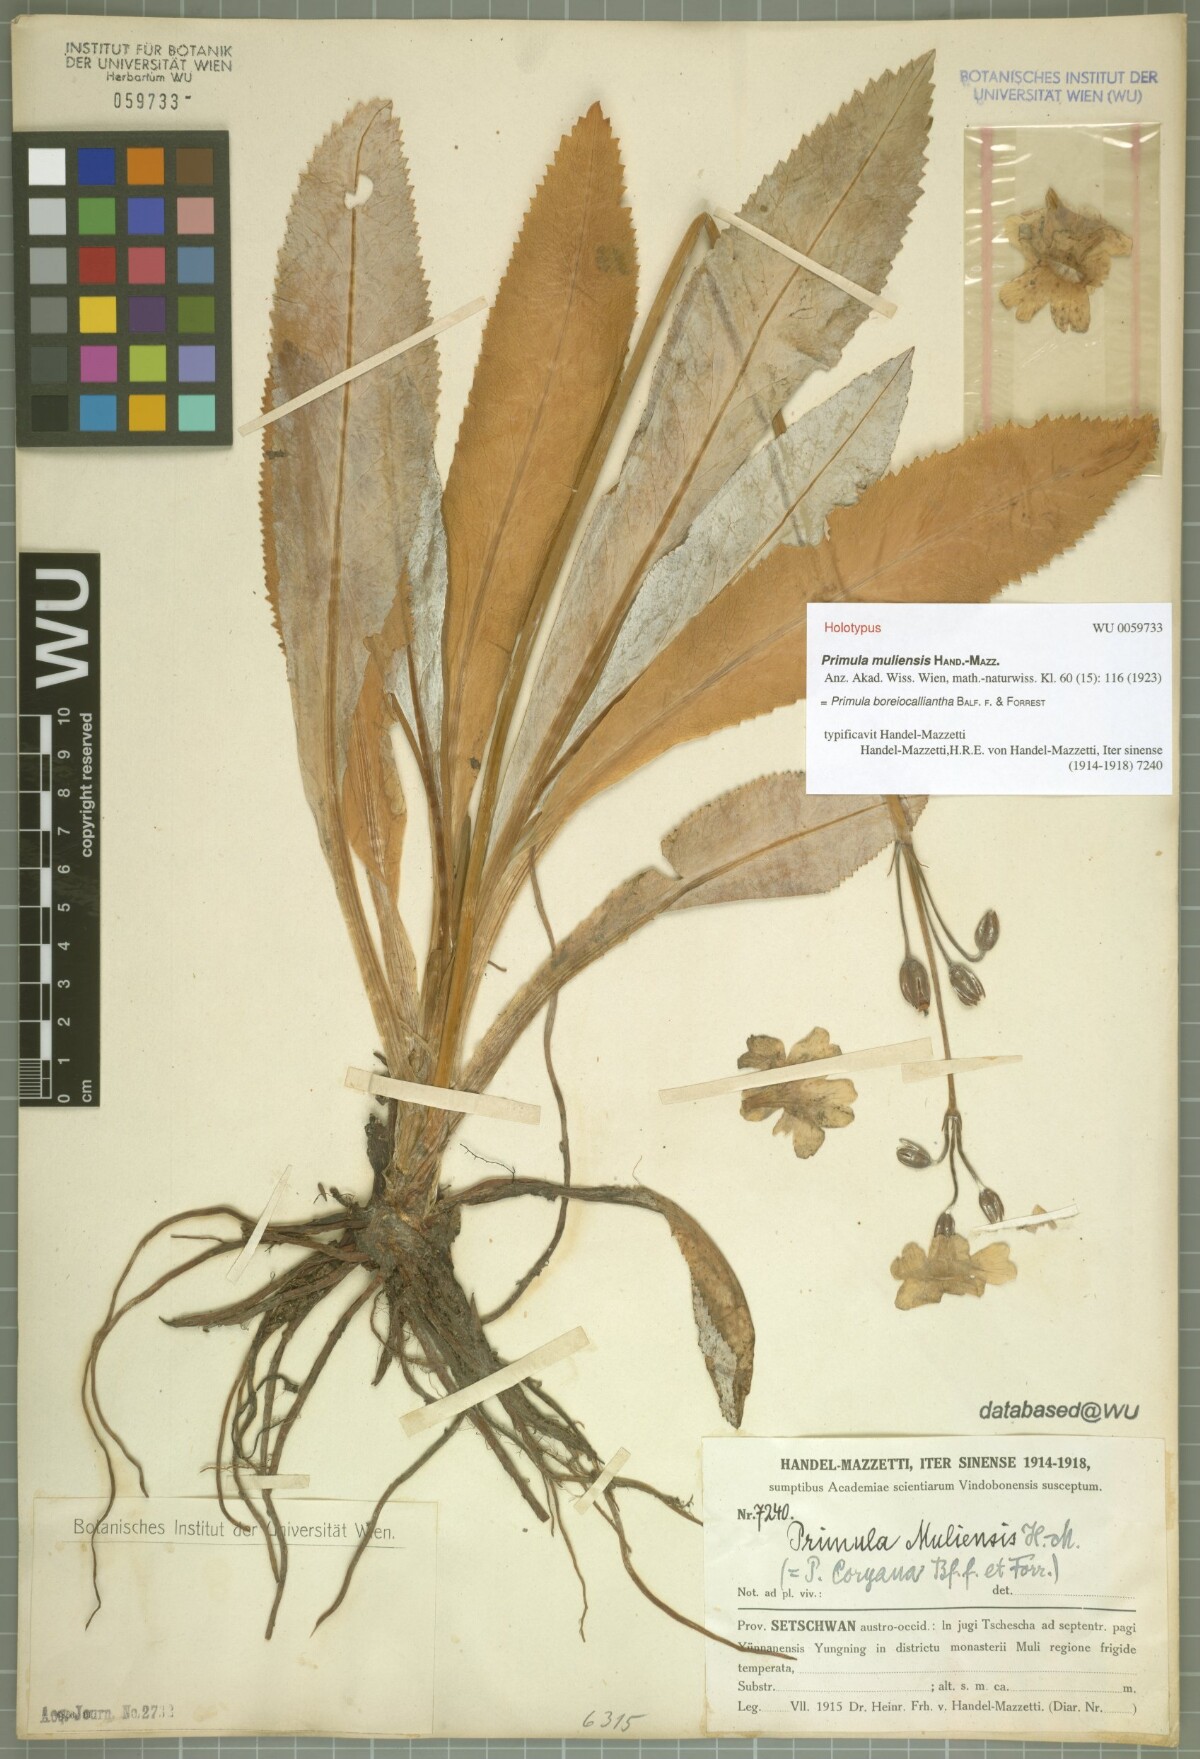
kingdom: Plantae
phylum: Tracheophyta
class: Magnoliopsida
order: Ericales
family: Primulaceae
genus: Primula
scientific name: Primula boreiocalliantha
